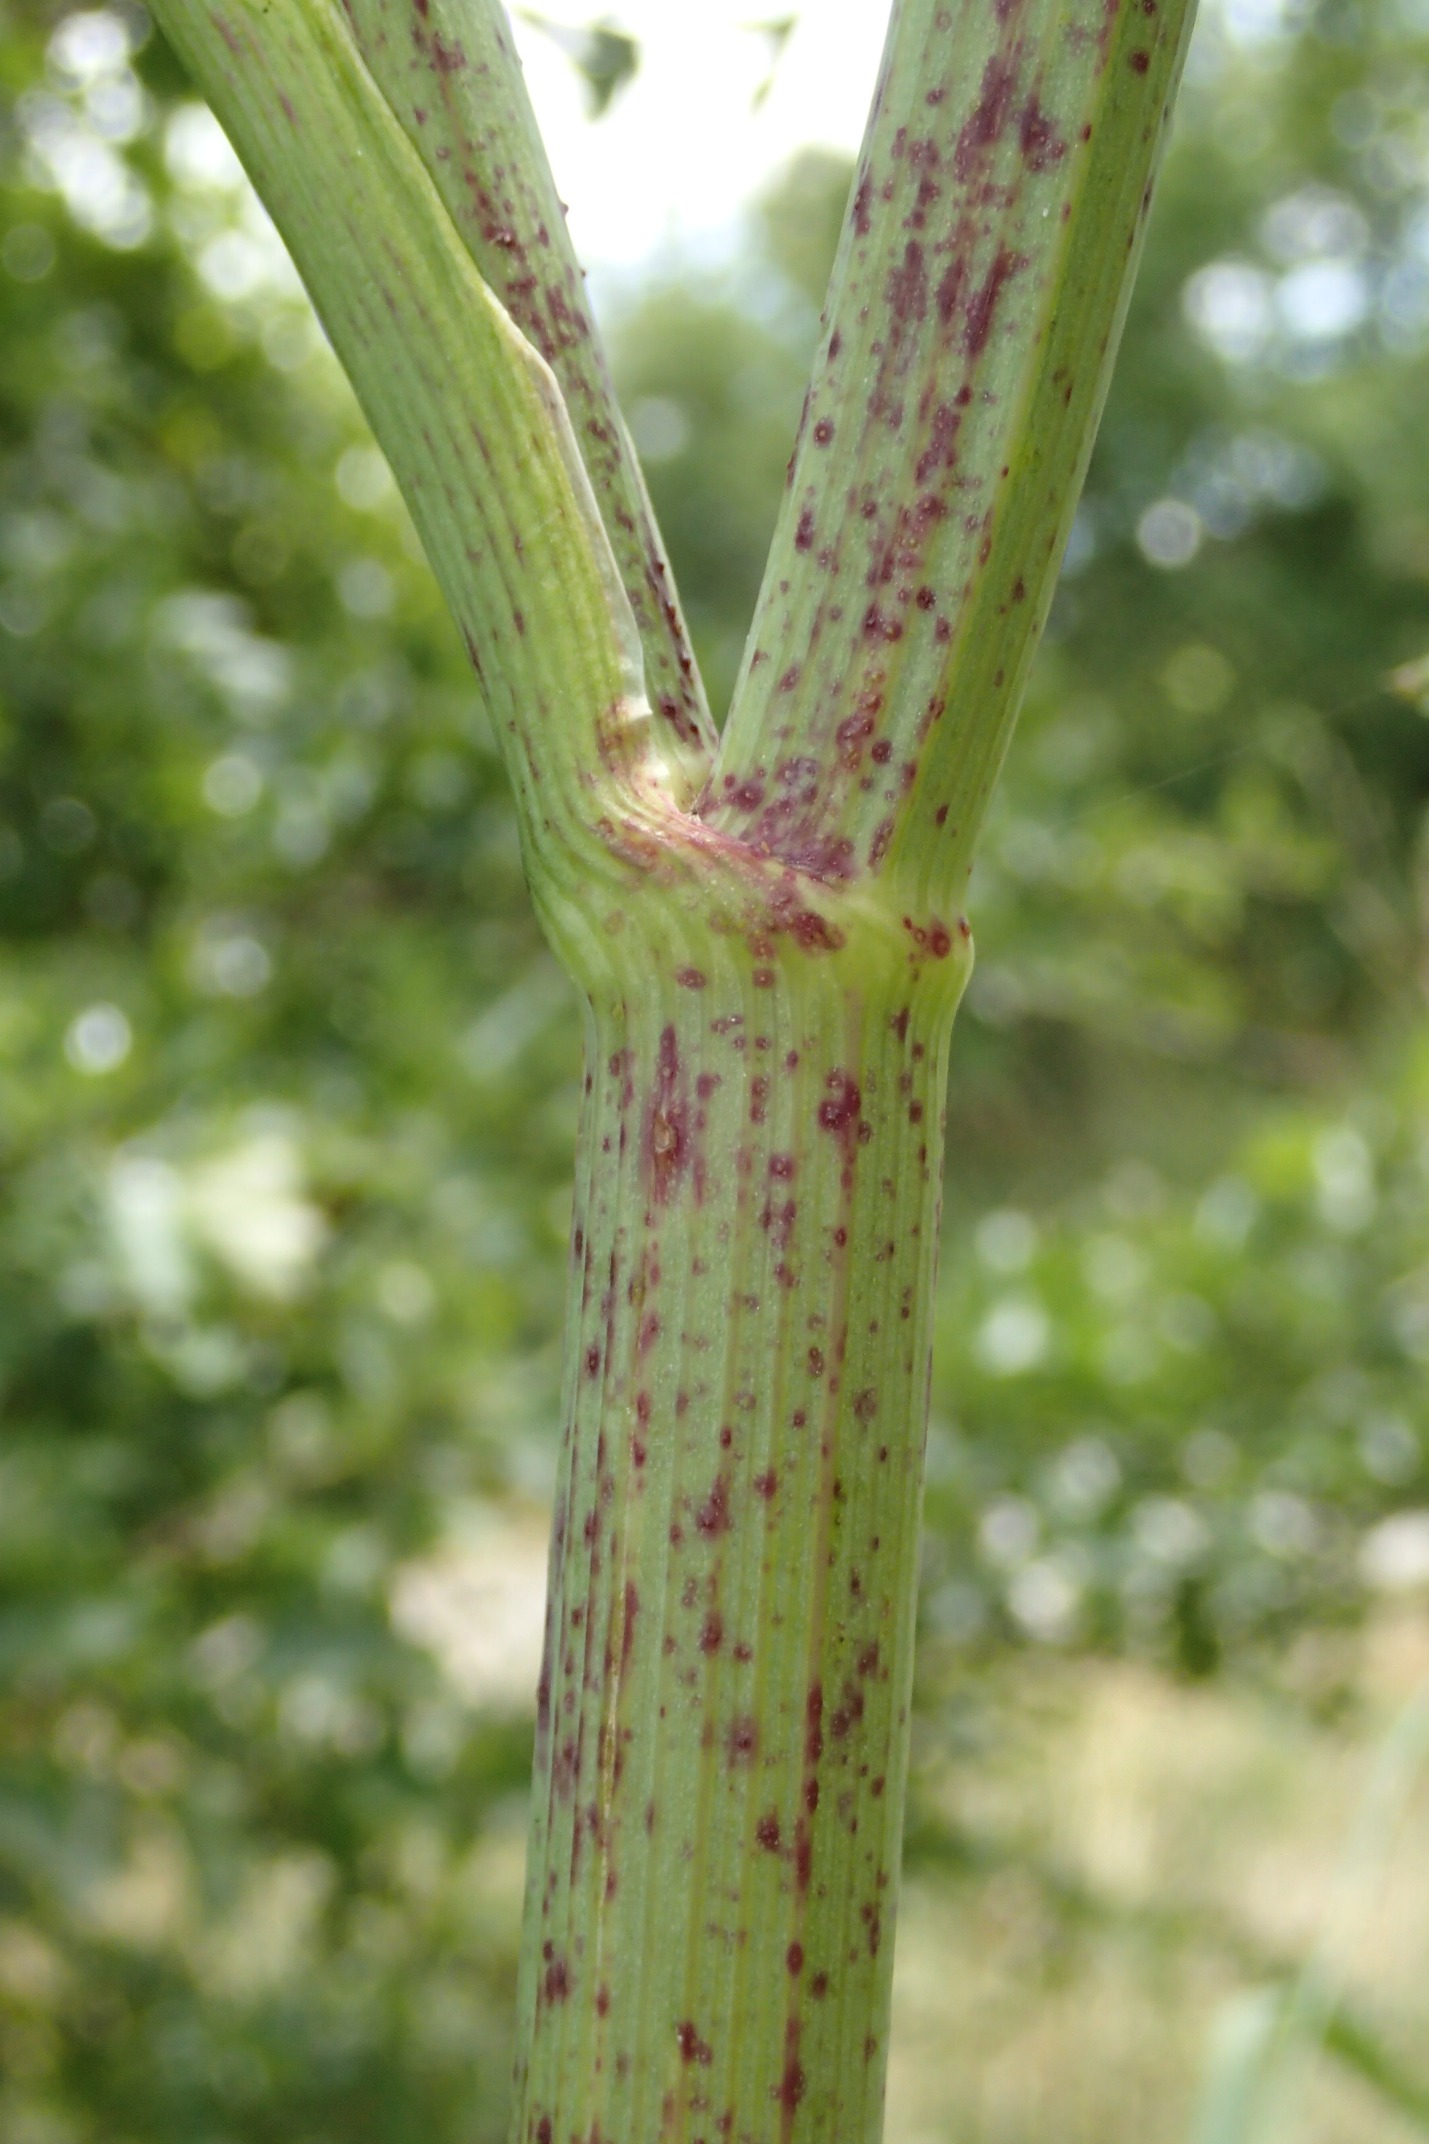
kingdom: Plantae
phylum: Tracheophyta
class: Magnoliopsida
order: Apiales
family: Apiaceae
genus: Conium
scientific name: Conium maculatum
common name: Skarntyde
